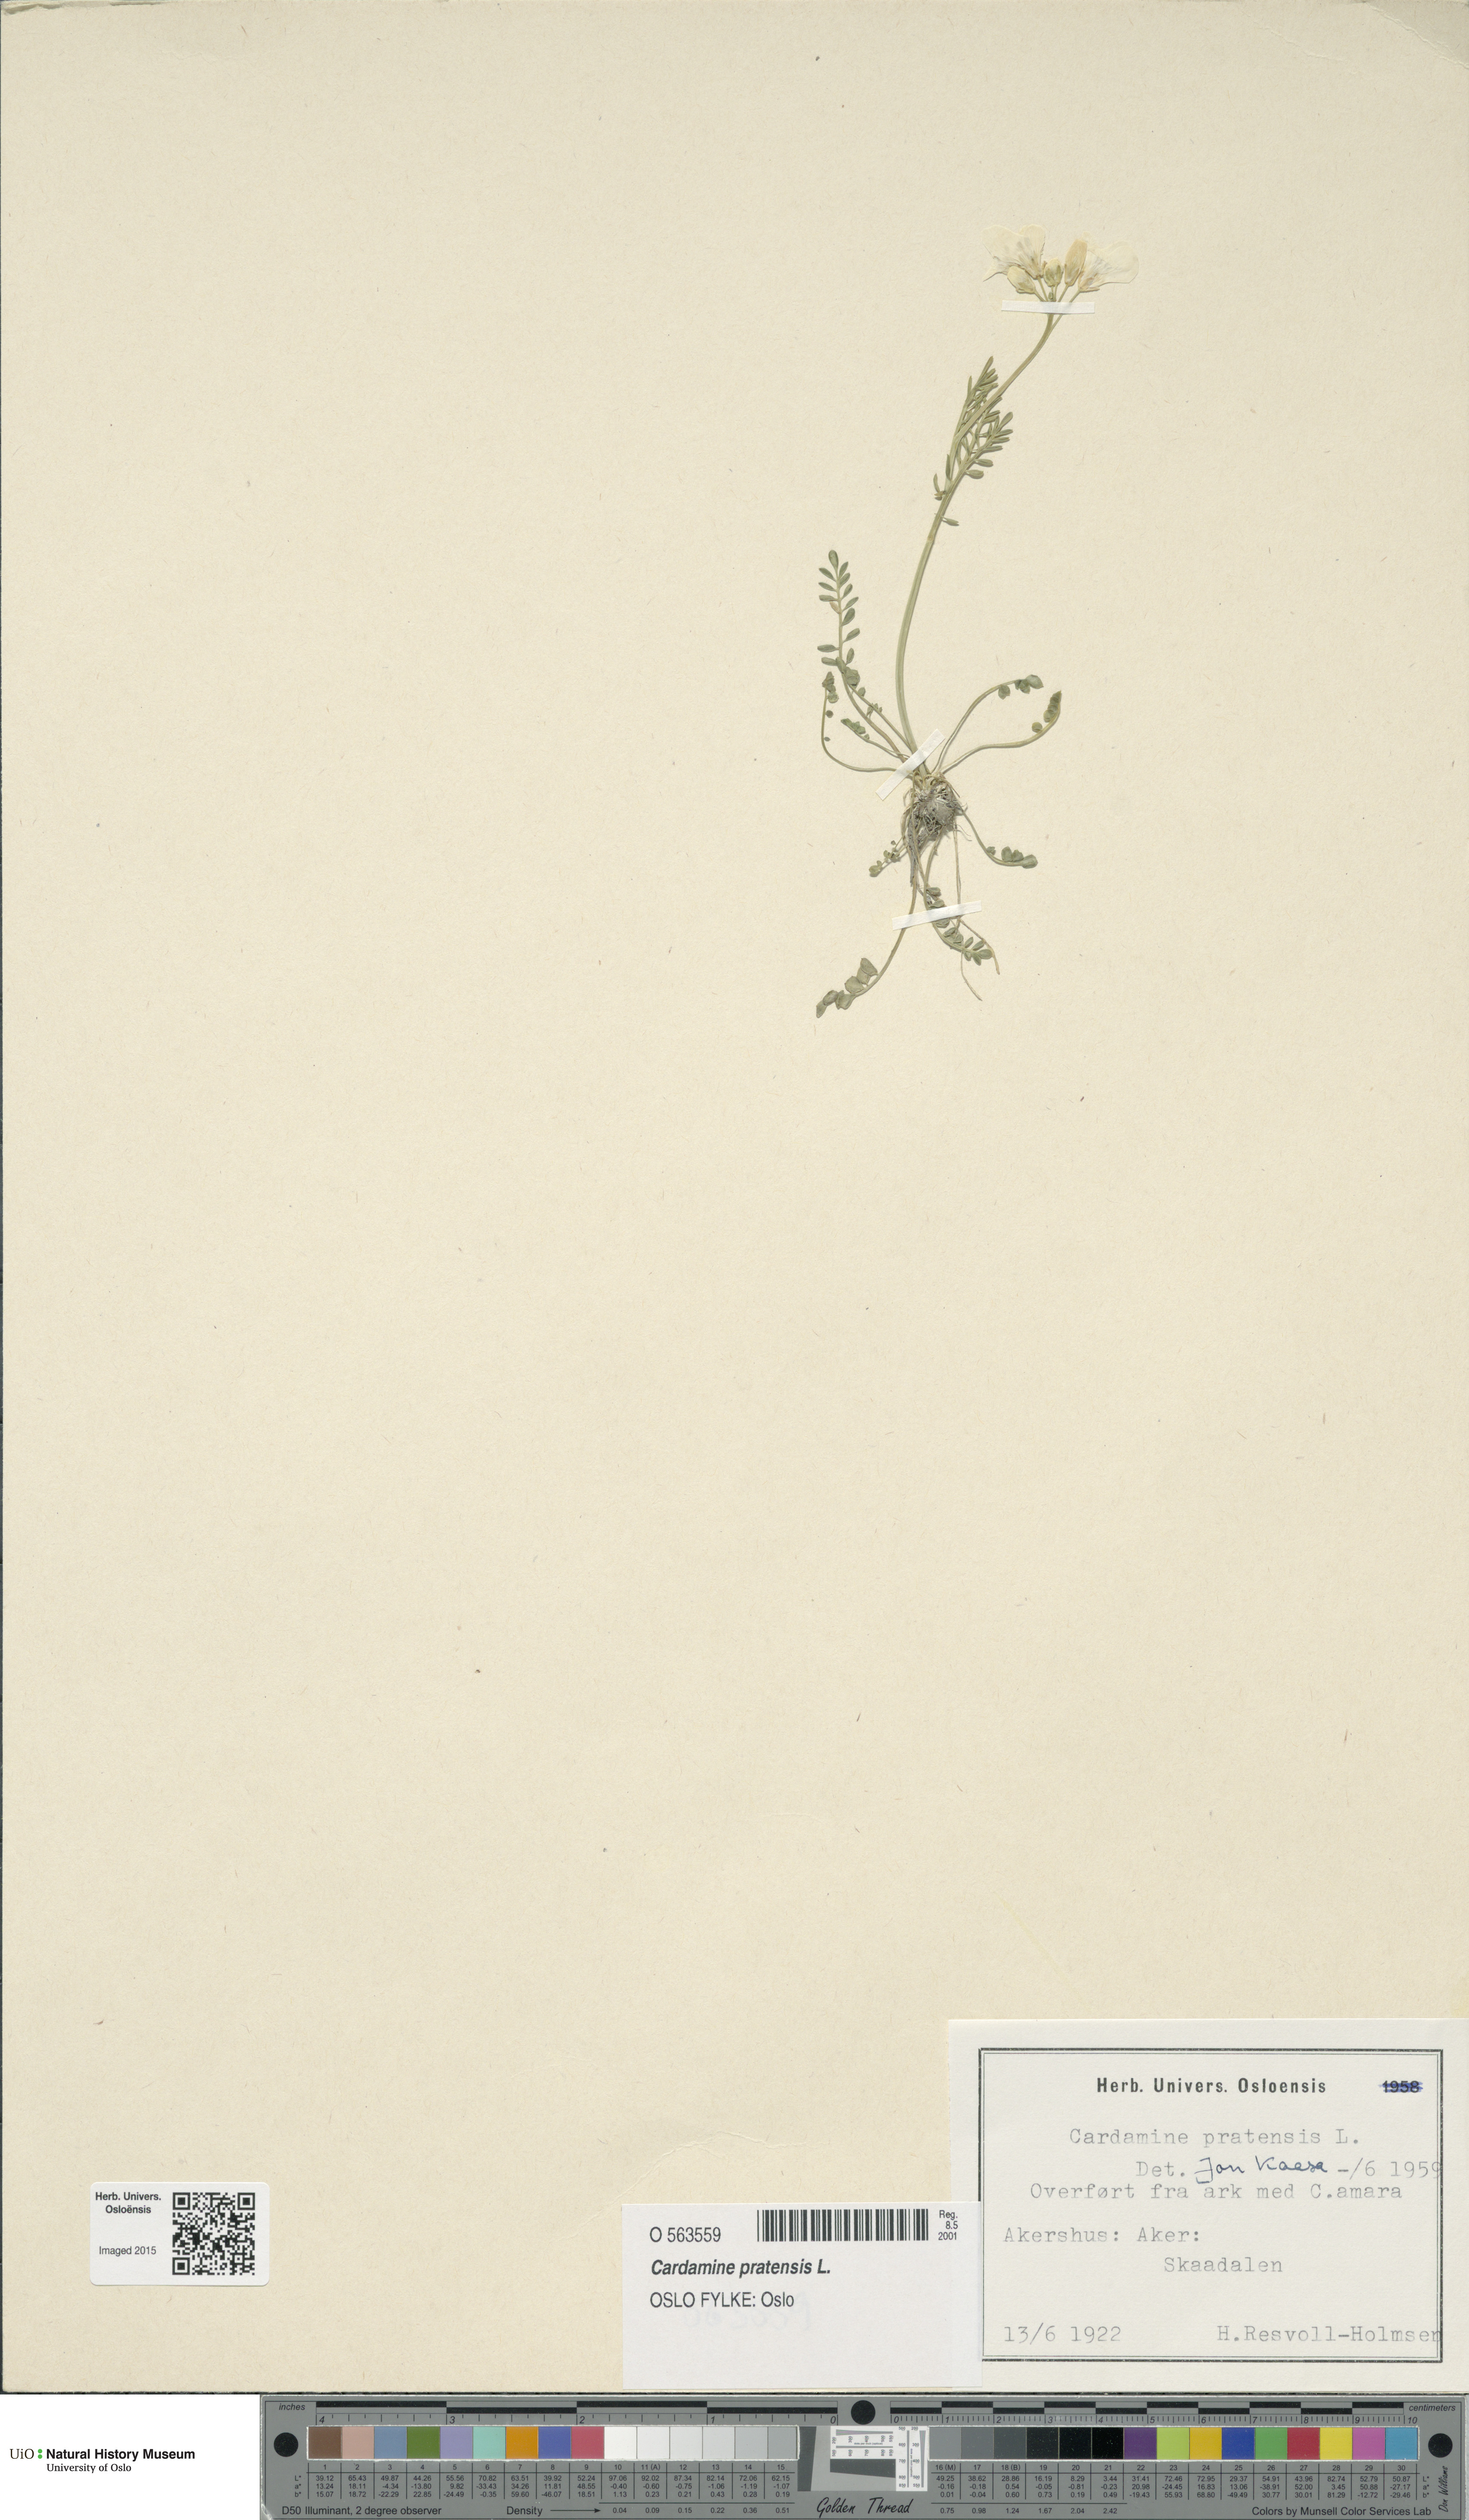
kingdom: Plantae
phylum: Tracheophyta
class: Magnoliopsida
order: Brassicales
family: Brassicaceae
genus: Cardamine
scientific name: Cardamine pratensis
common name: Cuckoo flower
